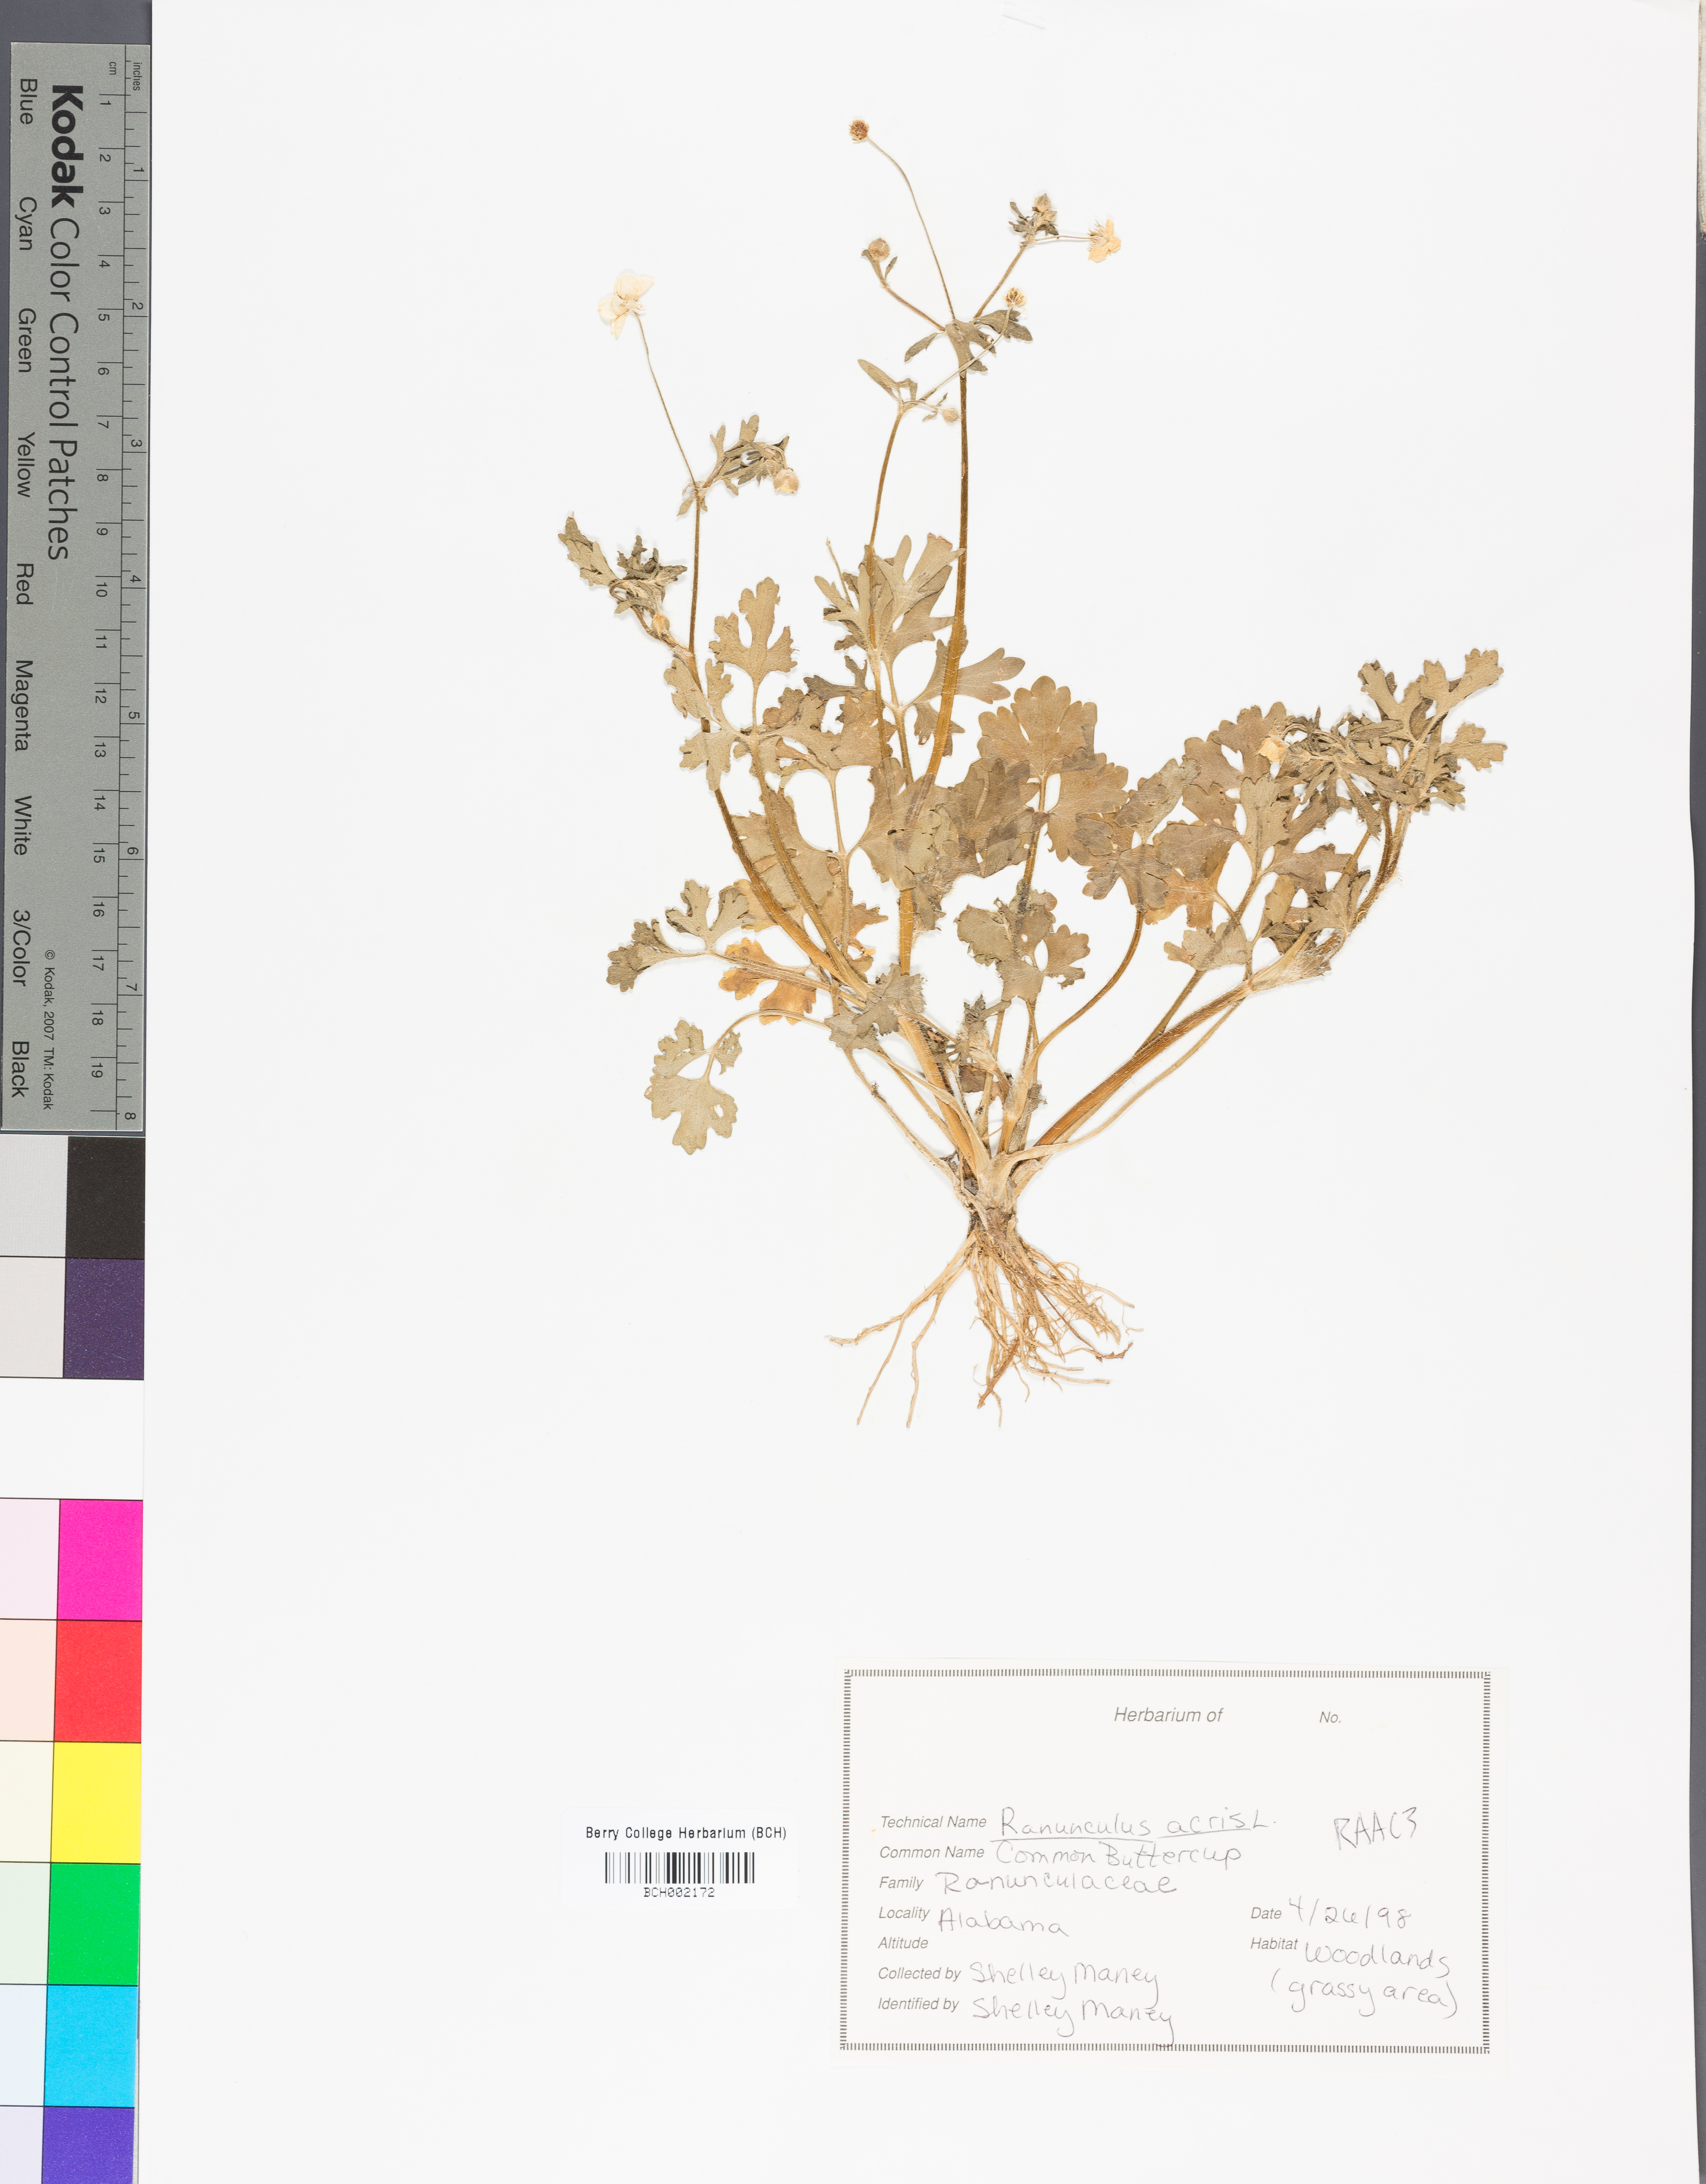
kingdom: Plantae
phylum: Tracheophyta
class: Magnoliopsida
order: Ranunculales
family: Ranunculaceae
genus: Ranunculus
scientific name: Ranunculus acris
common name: Meadow buttercup
